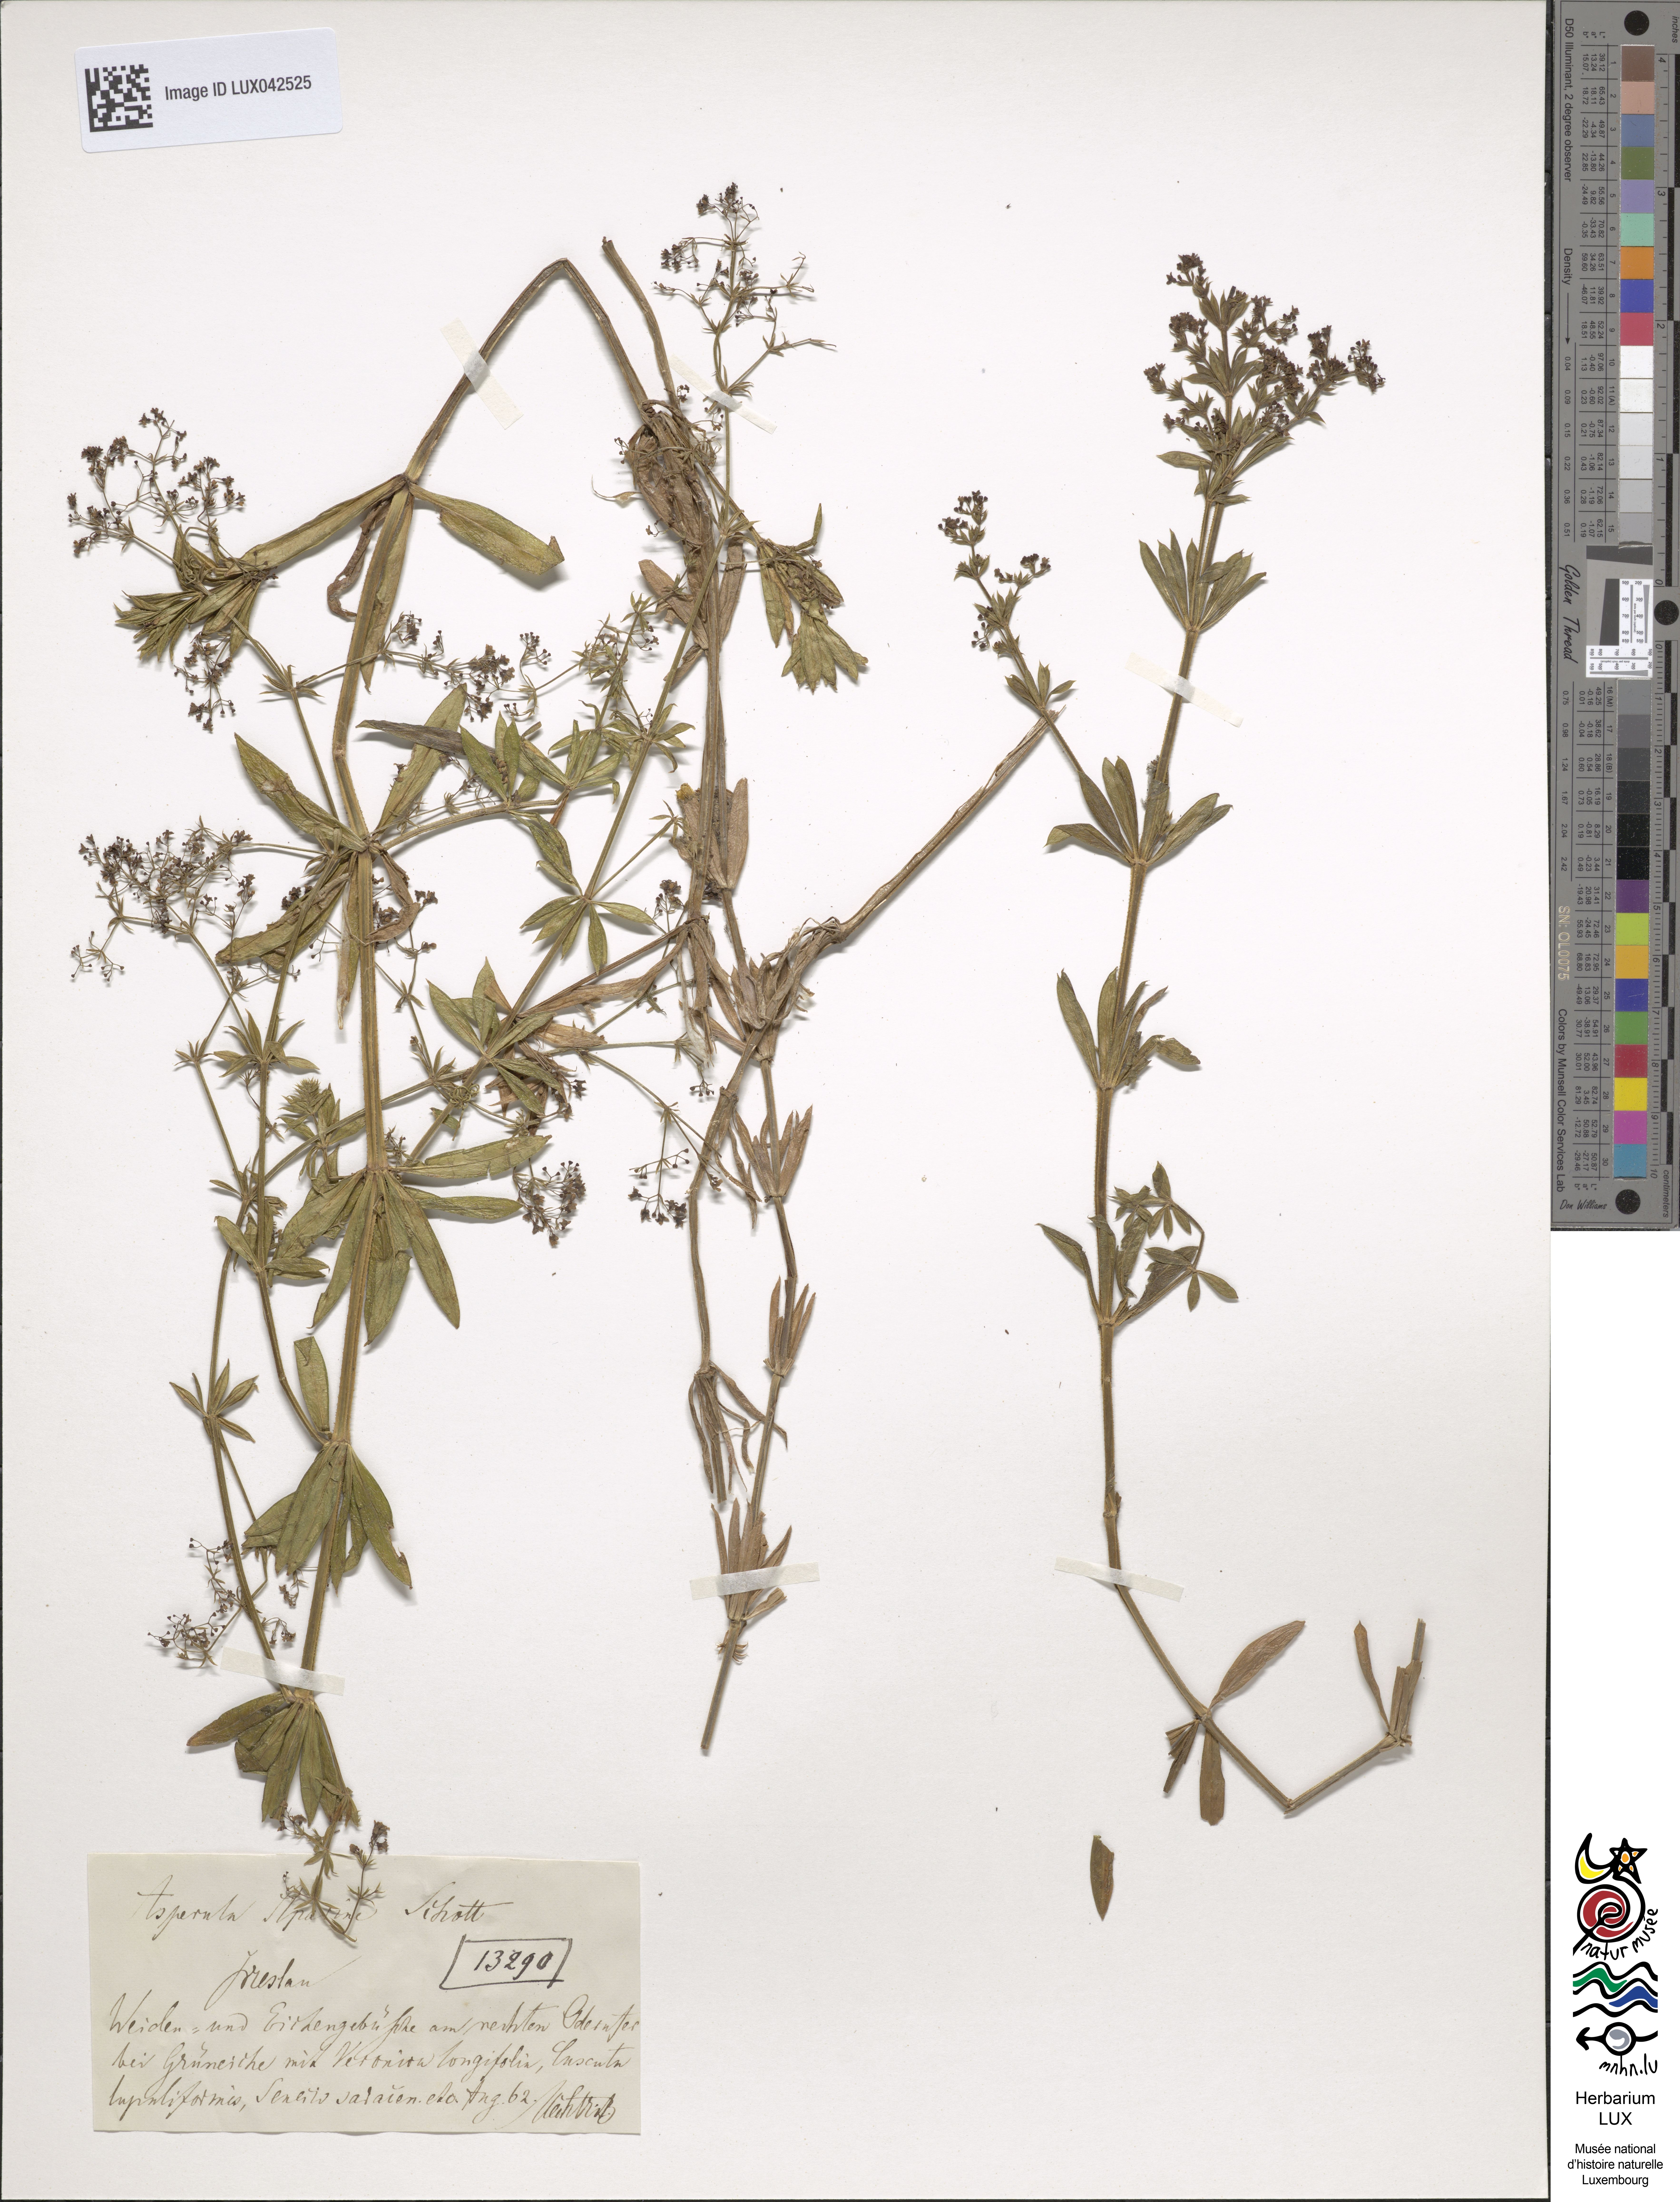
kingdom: Plantae
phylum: Tracheophyta
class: Magnoliopsida
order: Gentianales
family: Rubiaceae
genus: Galium
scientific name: Galium rivale
